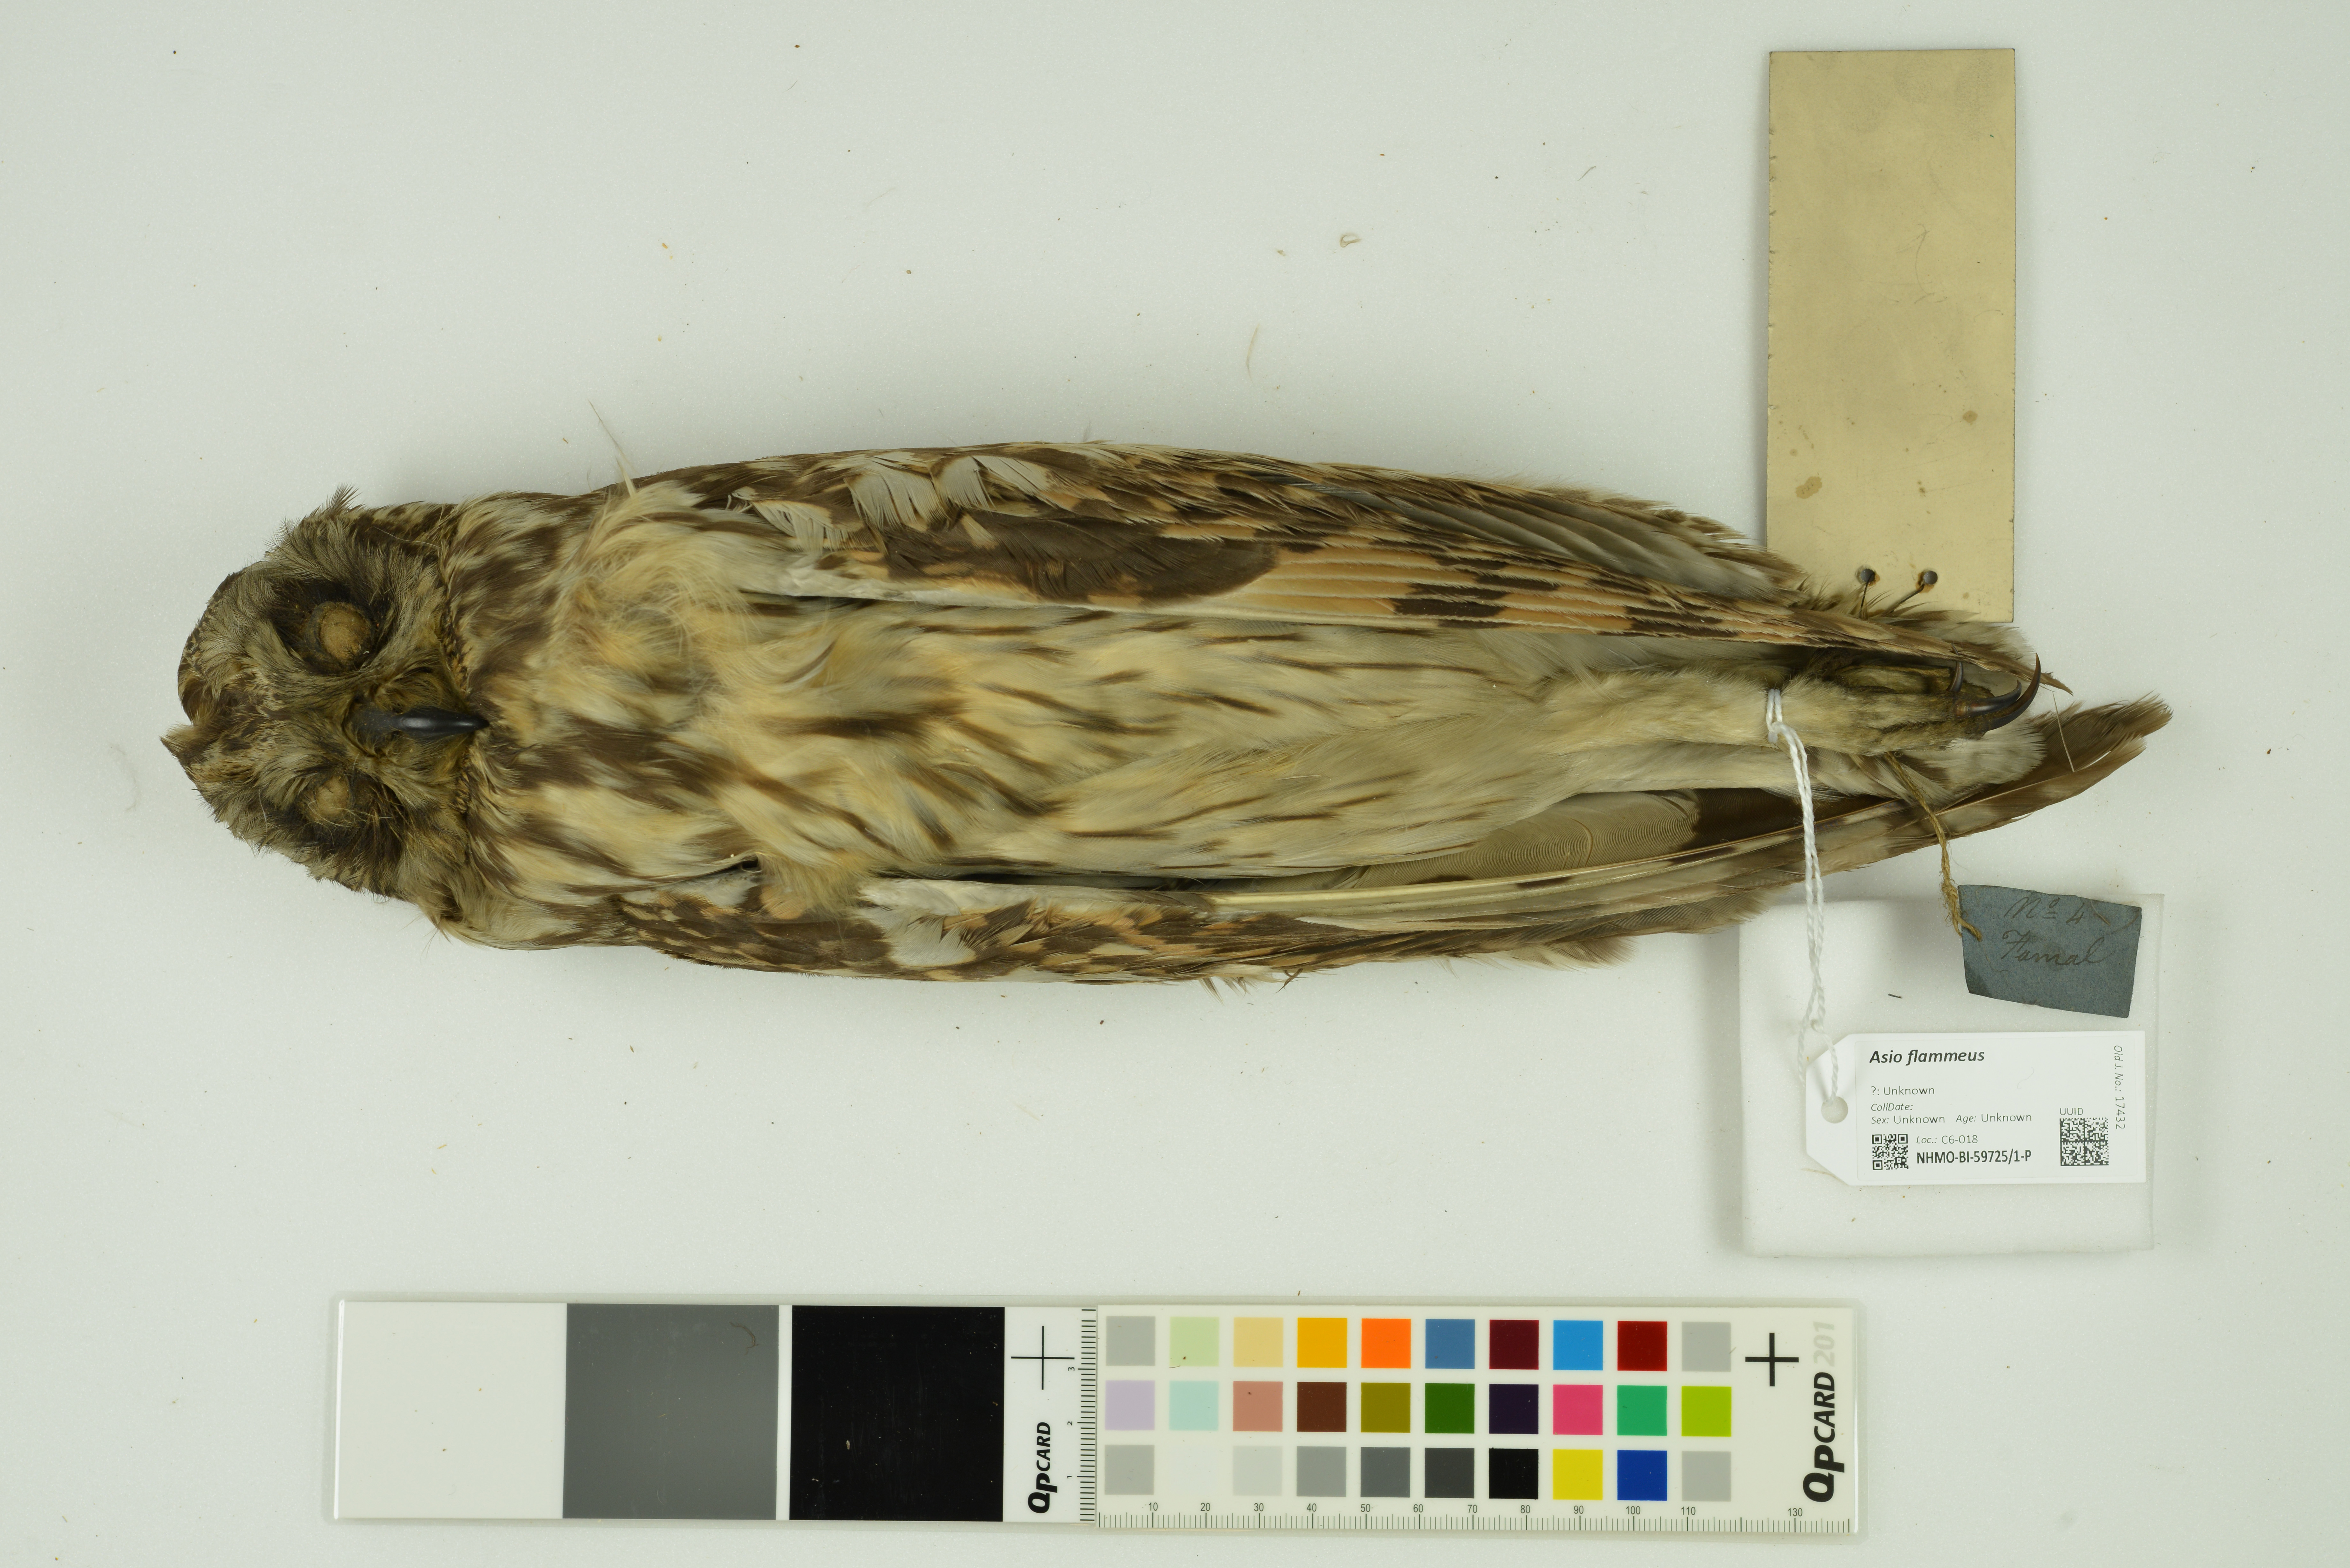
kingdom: Animalia
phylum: Chordata
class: Aves
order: Strigiformes
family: Strigidae
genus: Asio
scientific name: Asio flammeus
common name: Short-eared owl
